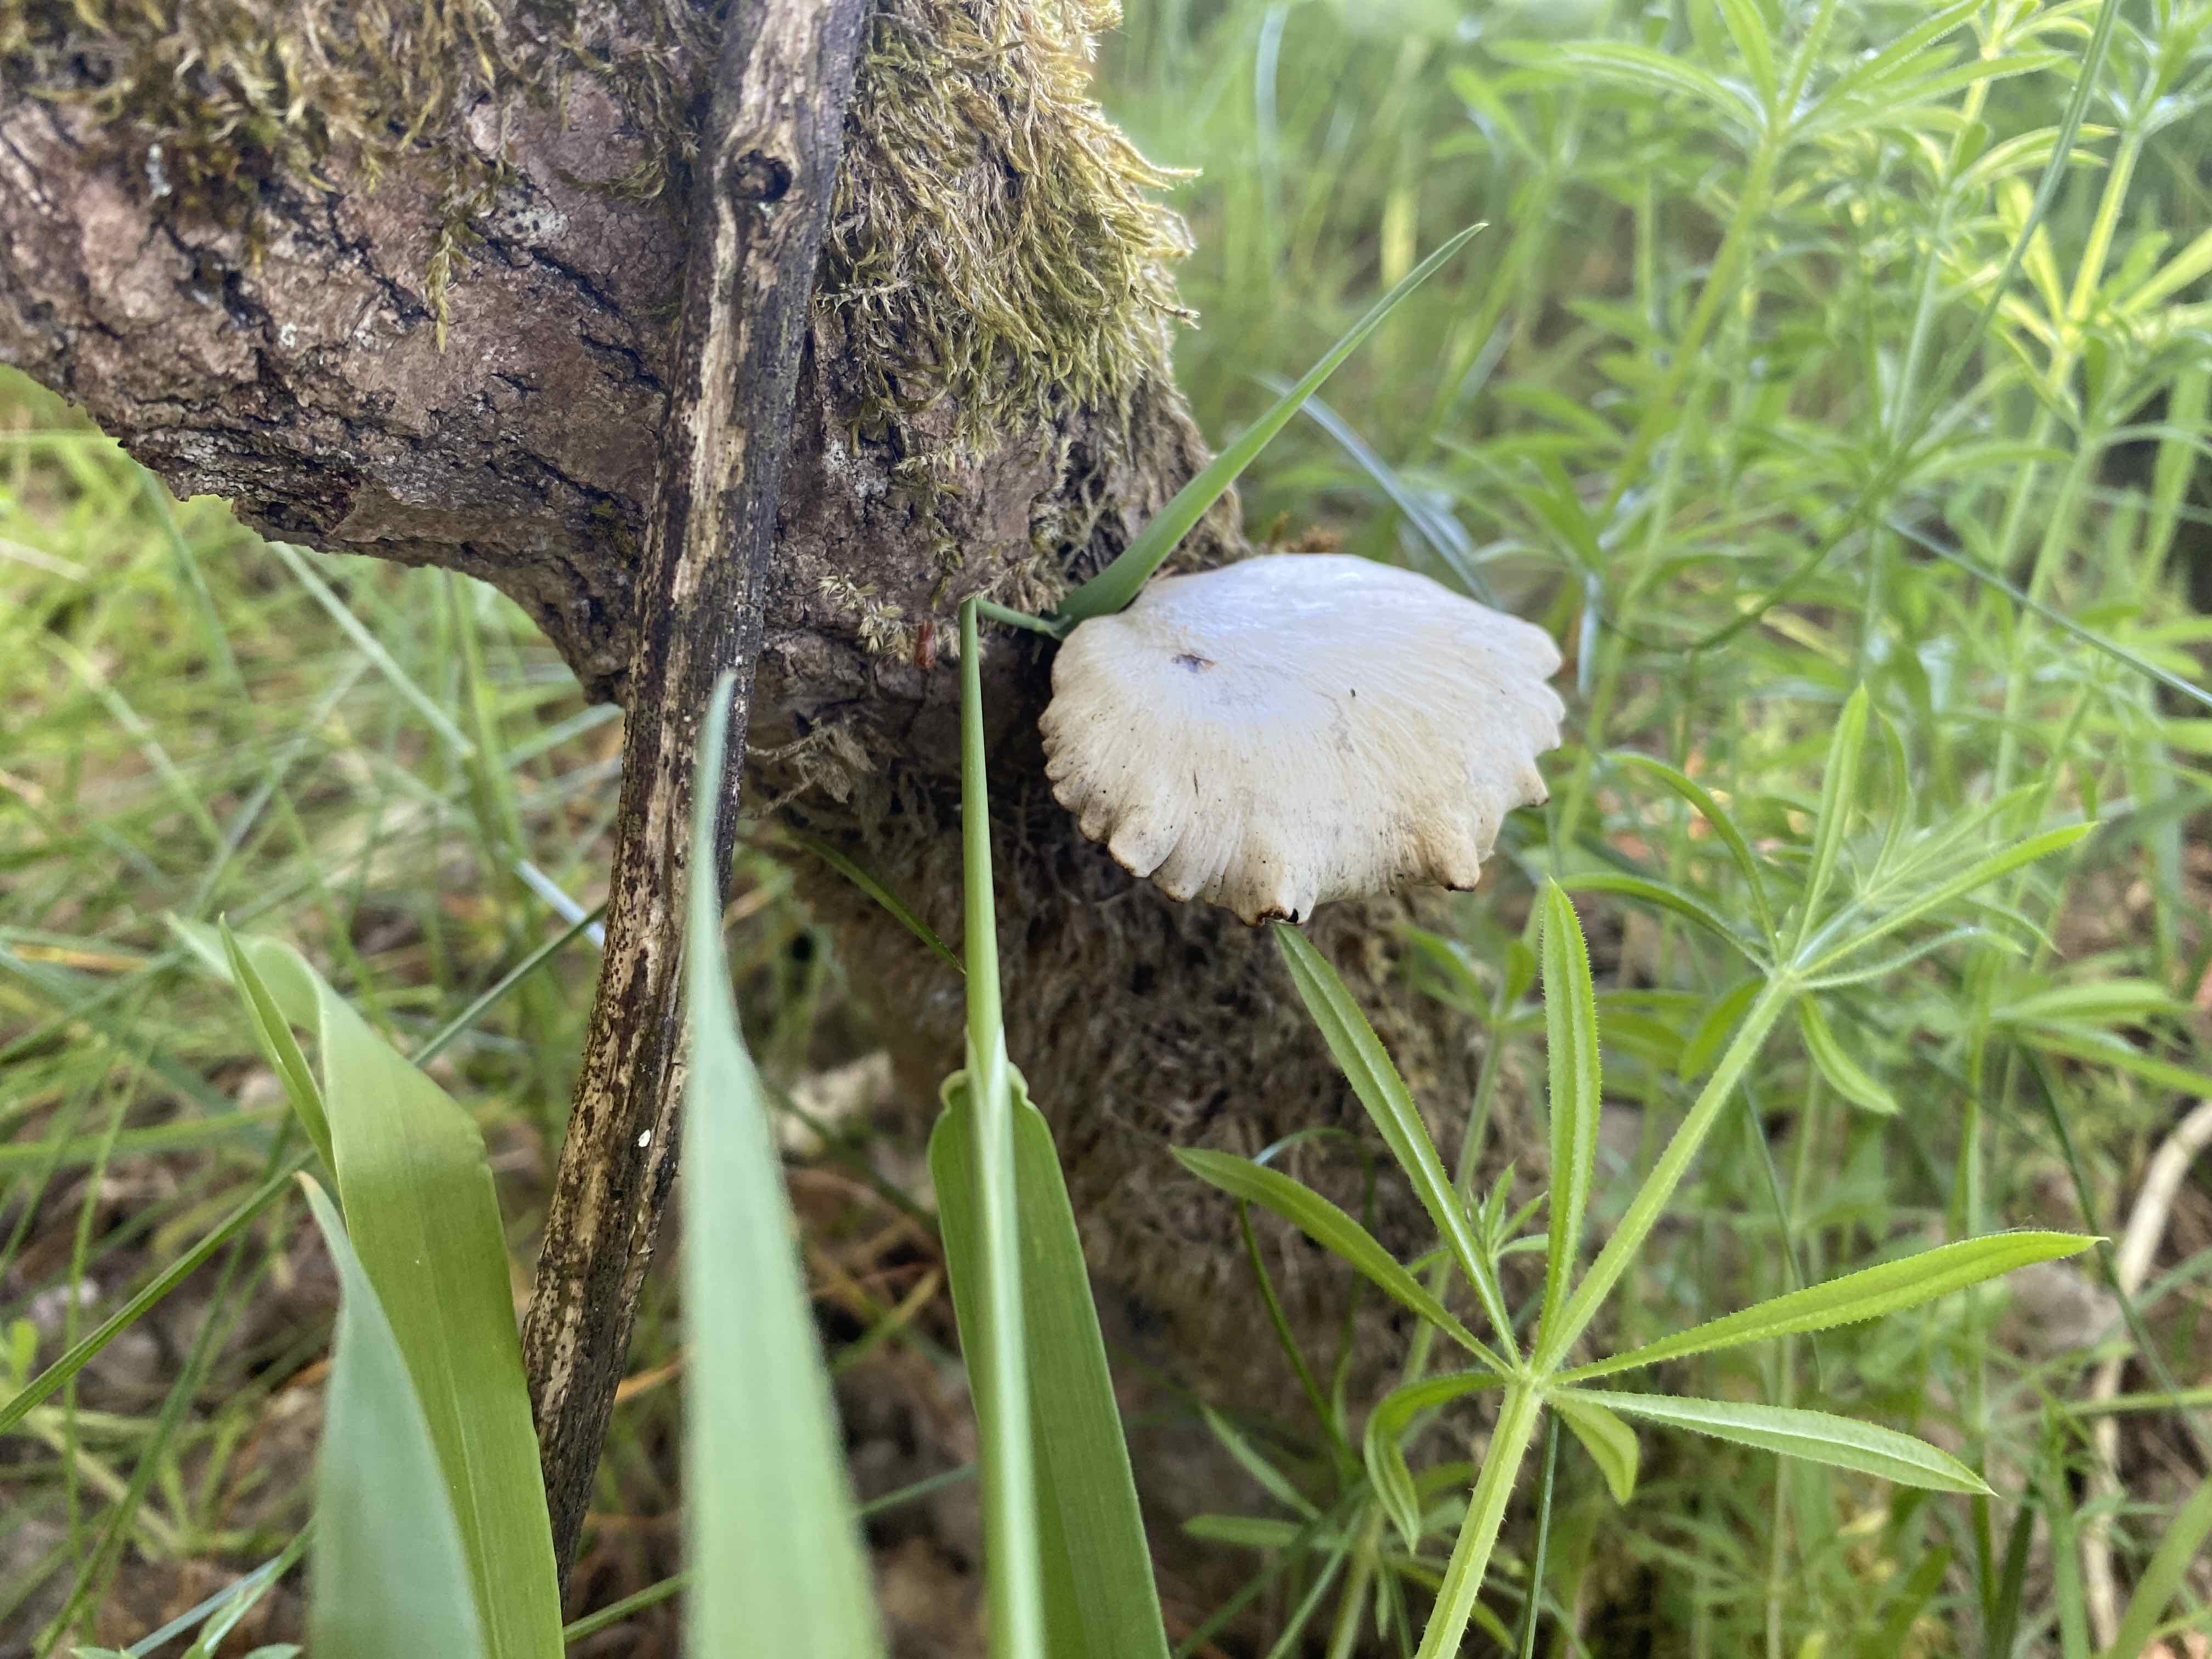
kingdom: Fungi
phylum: Basidiomycota
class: Agaricomycetes
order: Polyporales
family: Polyporaceae
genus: Cerioporus
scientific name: Cerioporus varius
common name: foranderlig stilkporesvamp
